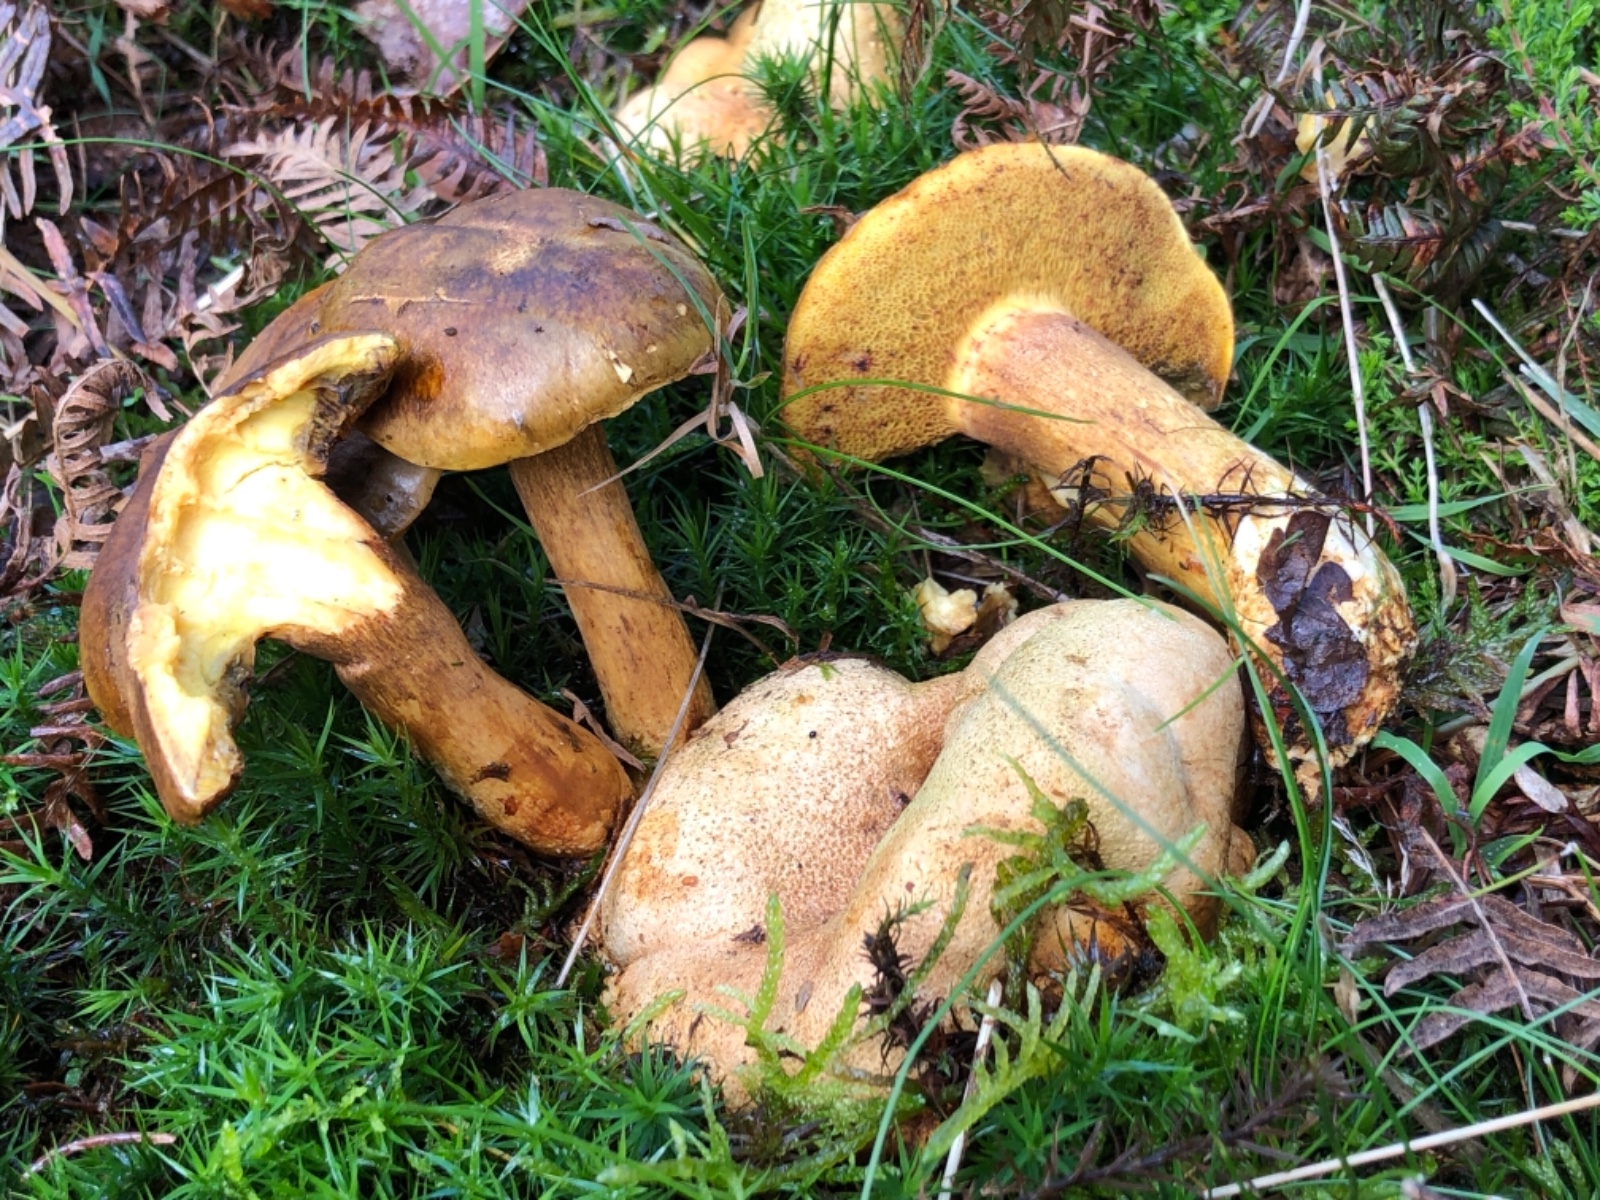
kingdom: Fungi
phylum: Basidiomycota
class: Agaricomycetes
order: Boletales
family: Boletaceae
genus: Pseudoboletus
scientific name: Pseudoboletus parasiticus
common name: snyltende rørhat
